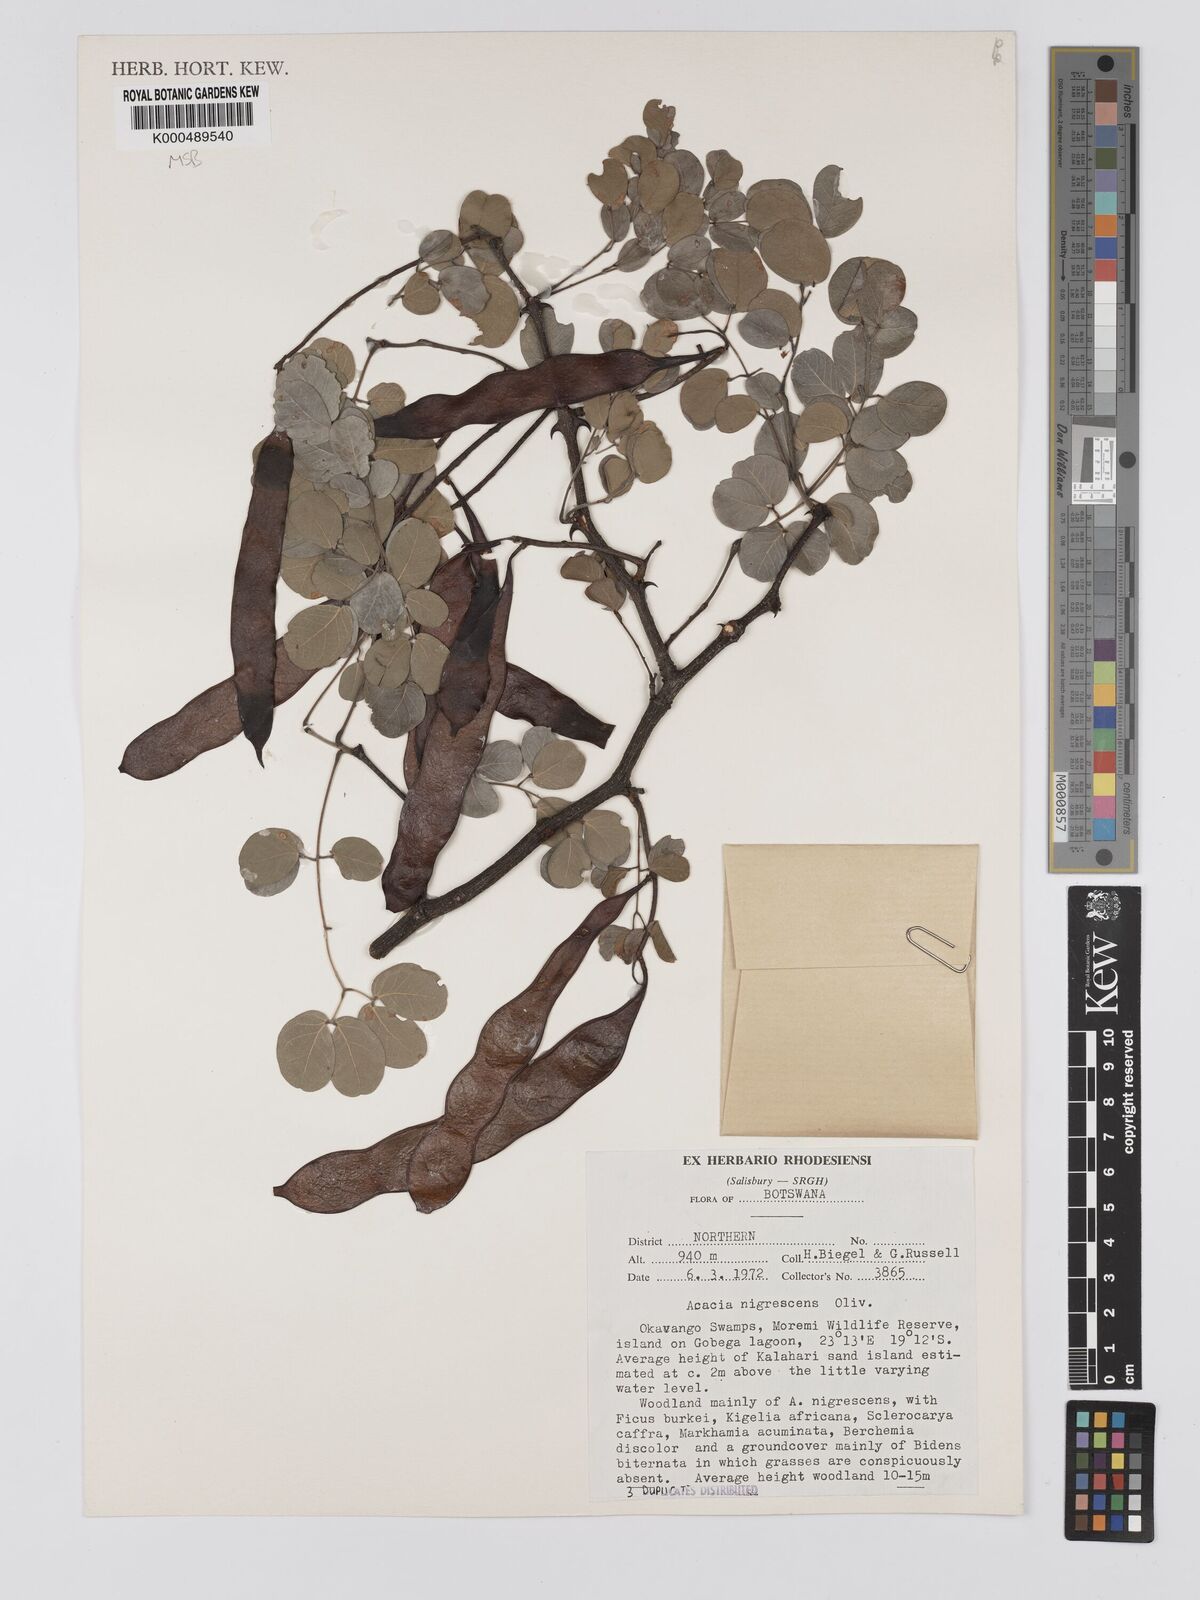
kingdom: Plantae
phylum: Tracheophyta
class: Magnoliopsida
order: Fabales
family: Fabaceae
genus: Senegalia
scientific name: Senegalia nigrescens
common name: Knobthorn
